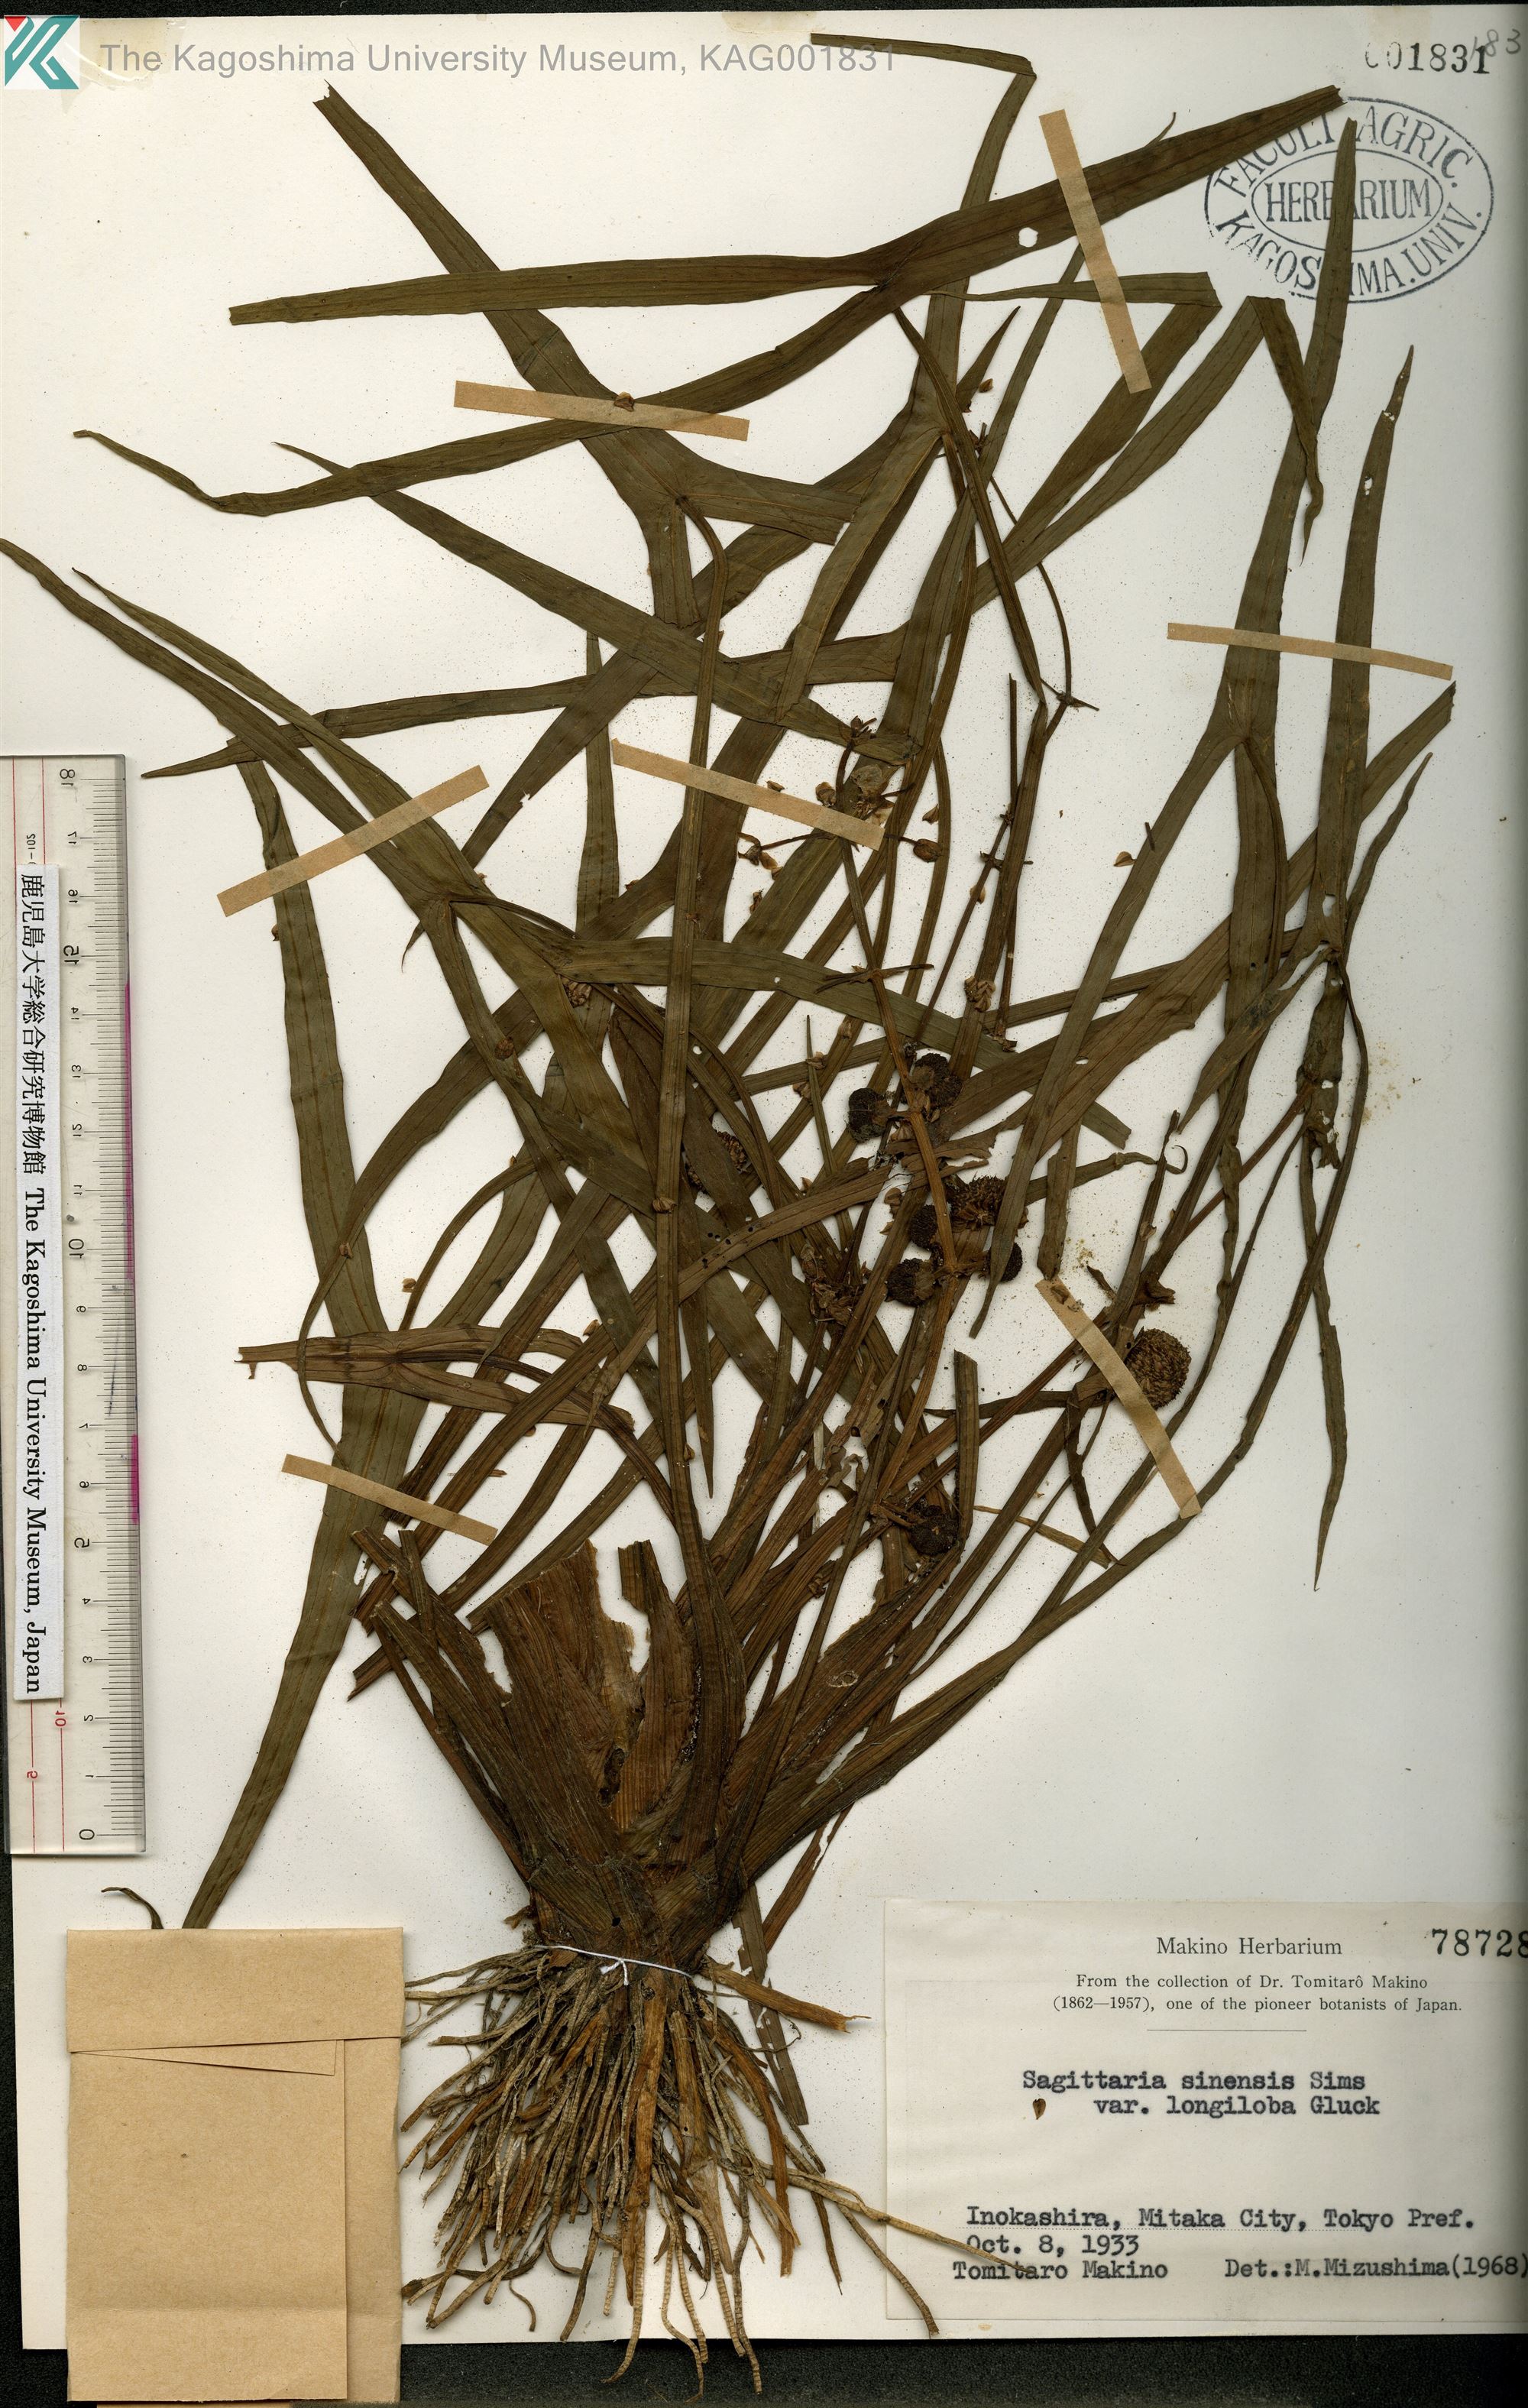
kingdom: Plantae
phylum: Tracheophyta
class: Liliopsida
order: Alismatales
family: Alismataceae
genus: Sagittaria
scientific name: Sagittaria trifolia
